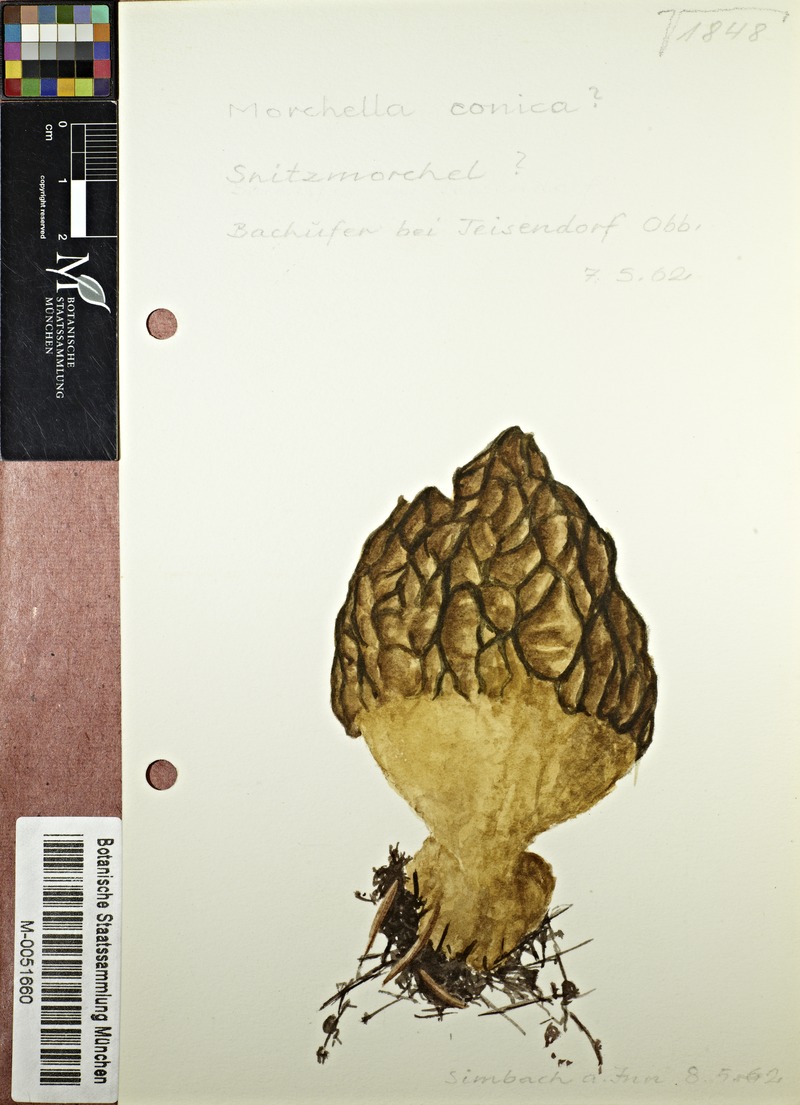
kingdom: Fungi
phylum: Ascomycota
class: Pezizomycetes
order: Pezizales
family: Morchellaceae
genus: Morchella
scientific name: Morchella esculenta
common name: Morel
